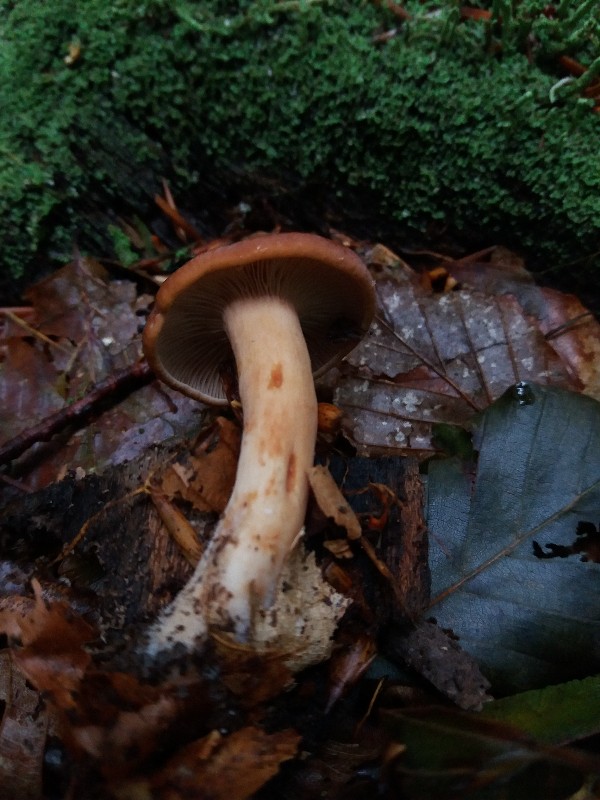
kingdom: Fungi
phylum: Basidiomycota
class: Agaricomycetes
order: Russulales
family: Russulaceae
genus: Lactarius
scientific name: Lactarius subdulcis
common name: sødlig mælkehat
